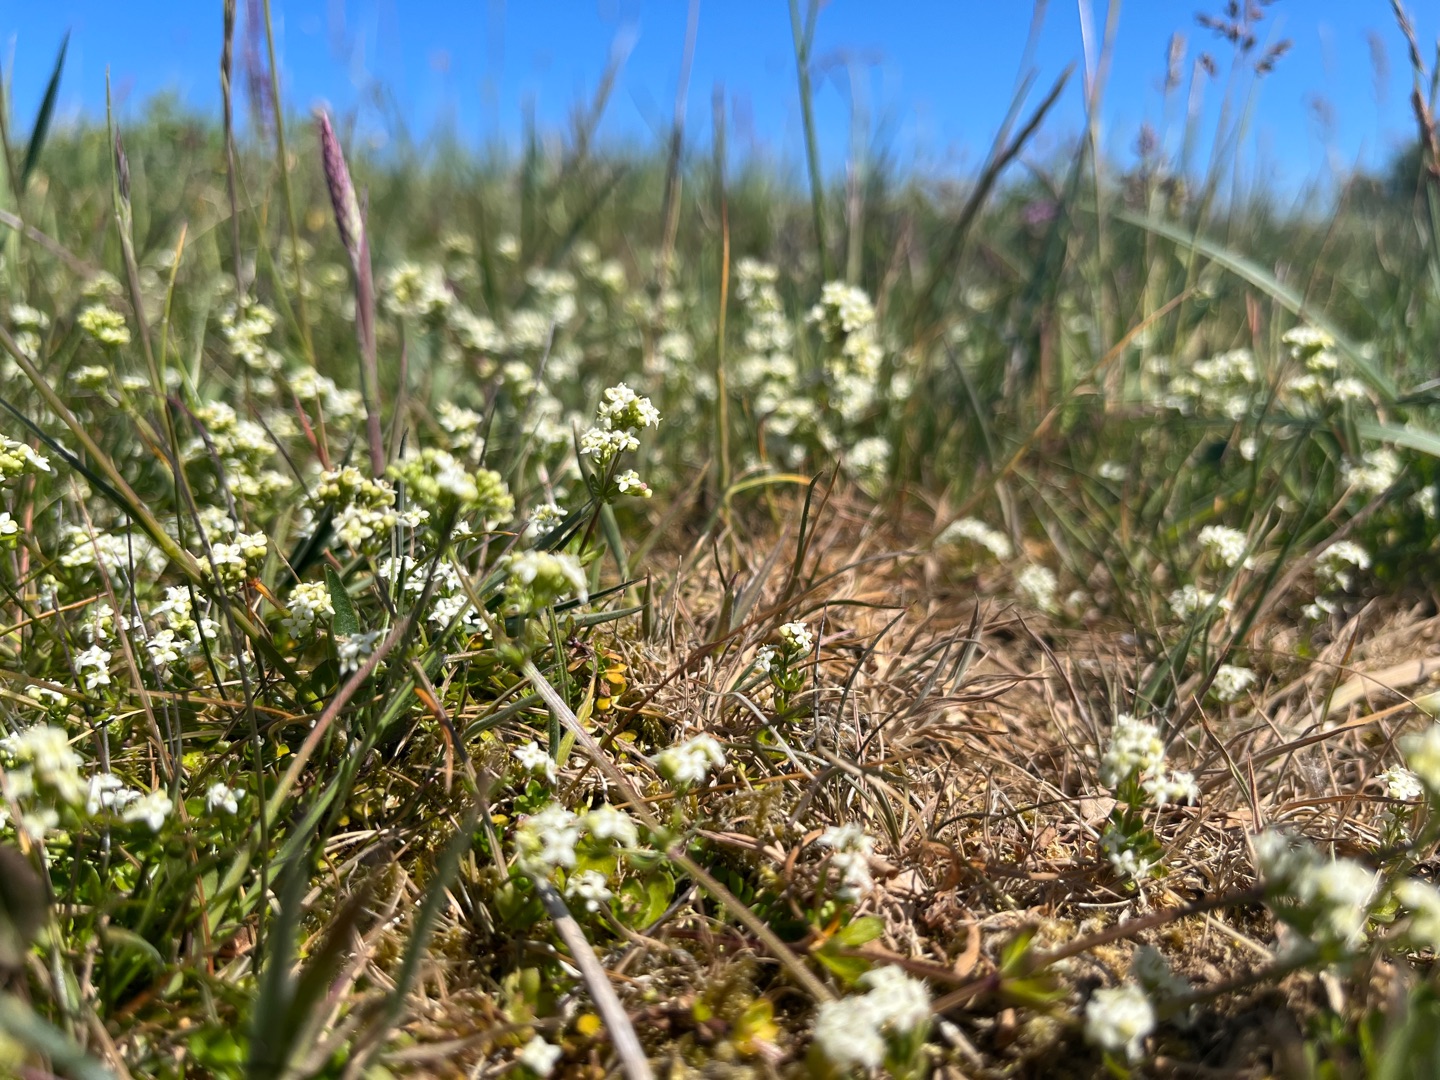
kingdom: Plantae
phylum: Tracheophyta
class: Magnoliopsida
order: Gentianales
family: Rubiaceae
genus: Galium
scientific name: Galium saxatile
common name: Lyng-snerre
